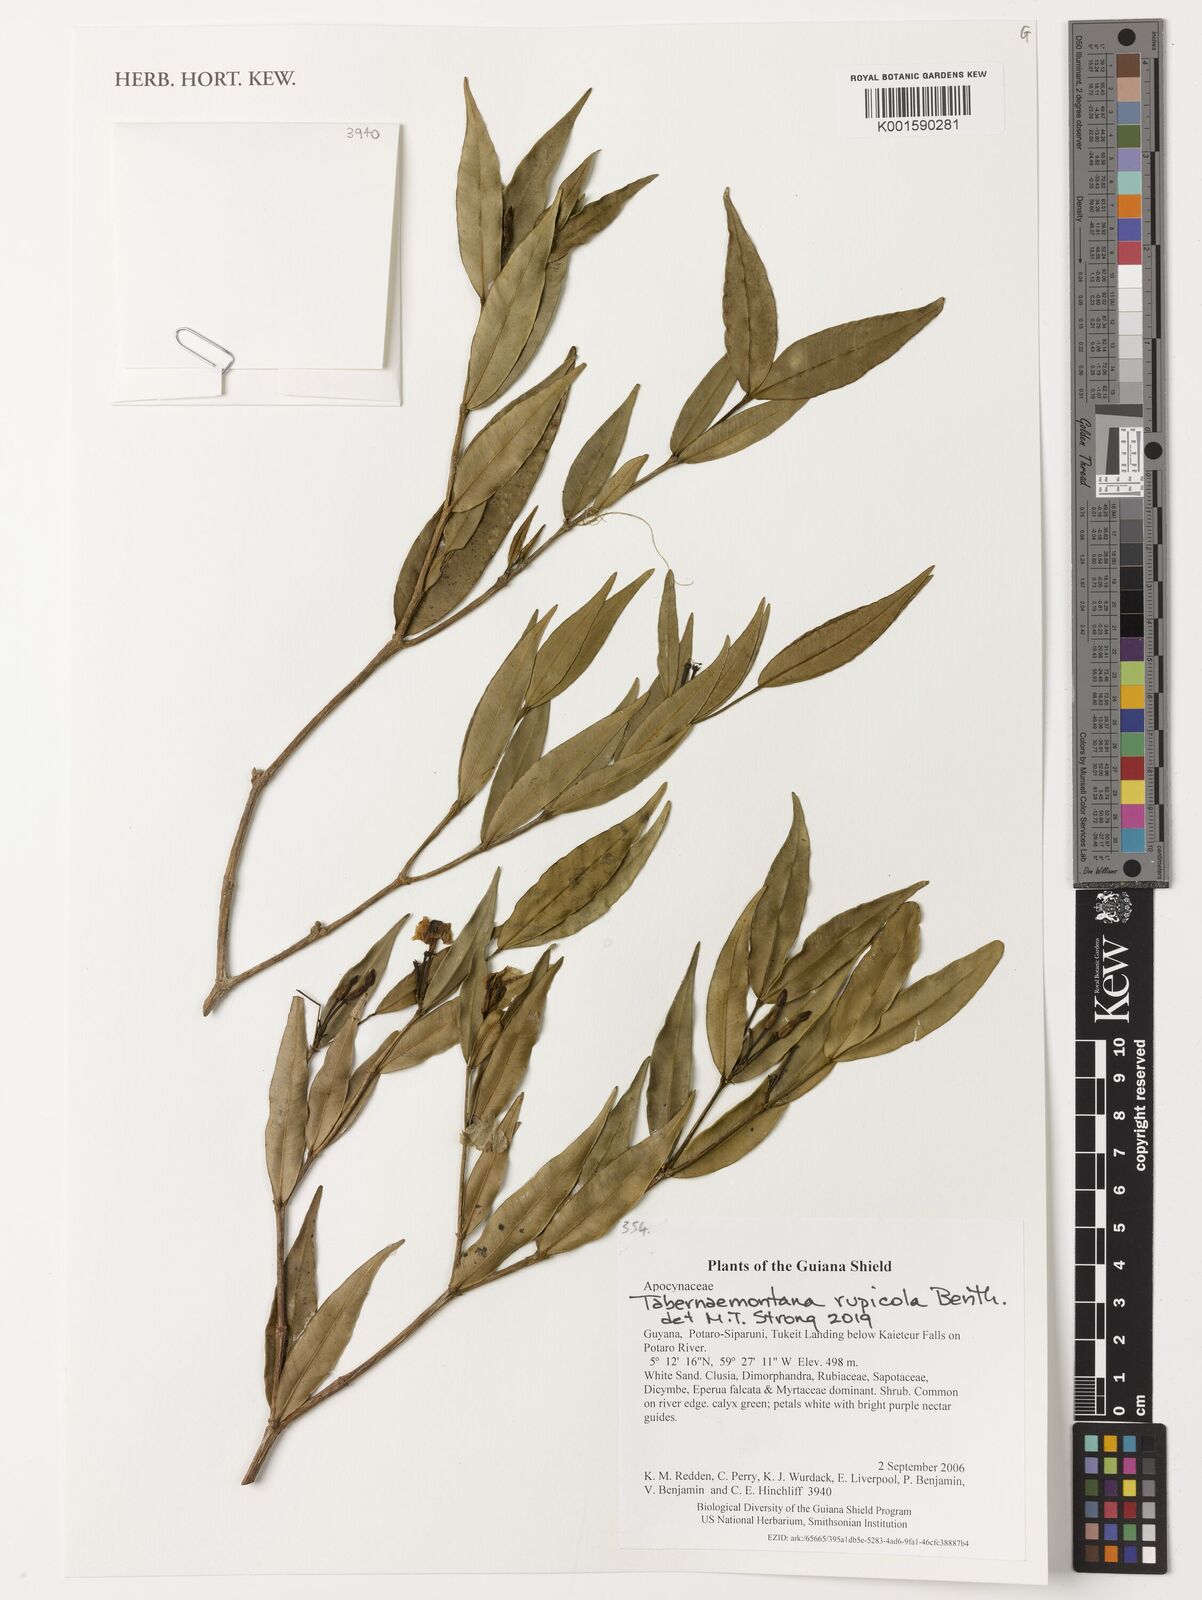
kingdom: Plantae
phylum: Tracheophyta
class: Magnoliopsida
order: Gentianales
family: Apocynaceae
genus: Tabernaemontana
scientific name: Tabernaemontana rupicola
